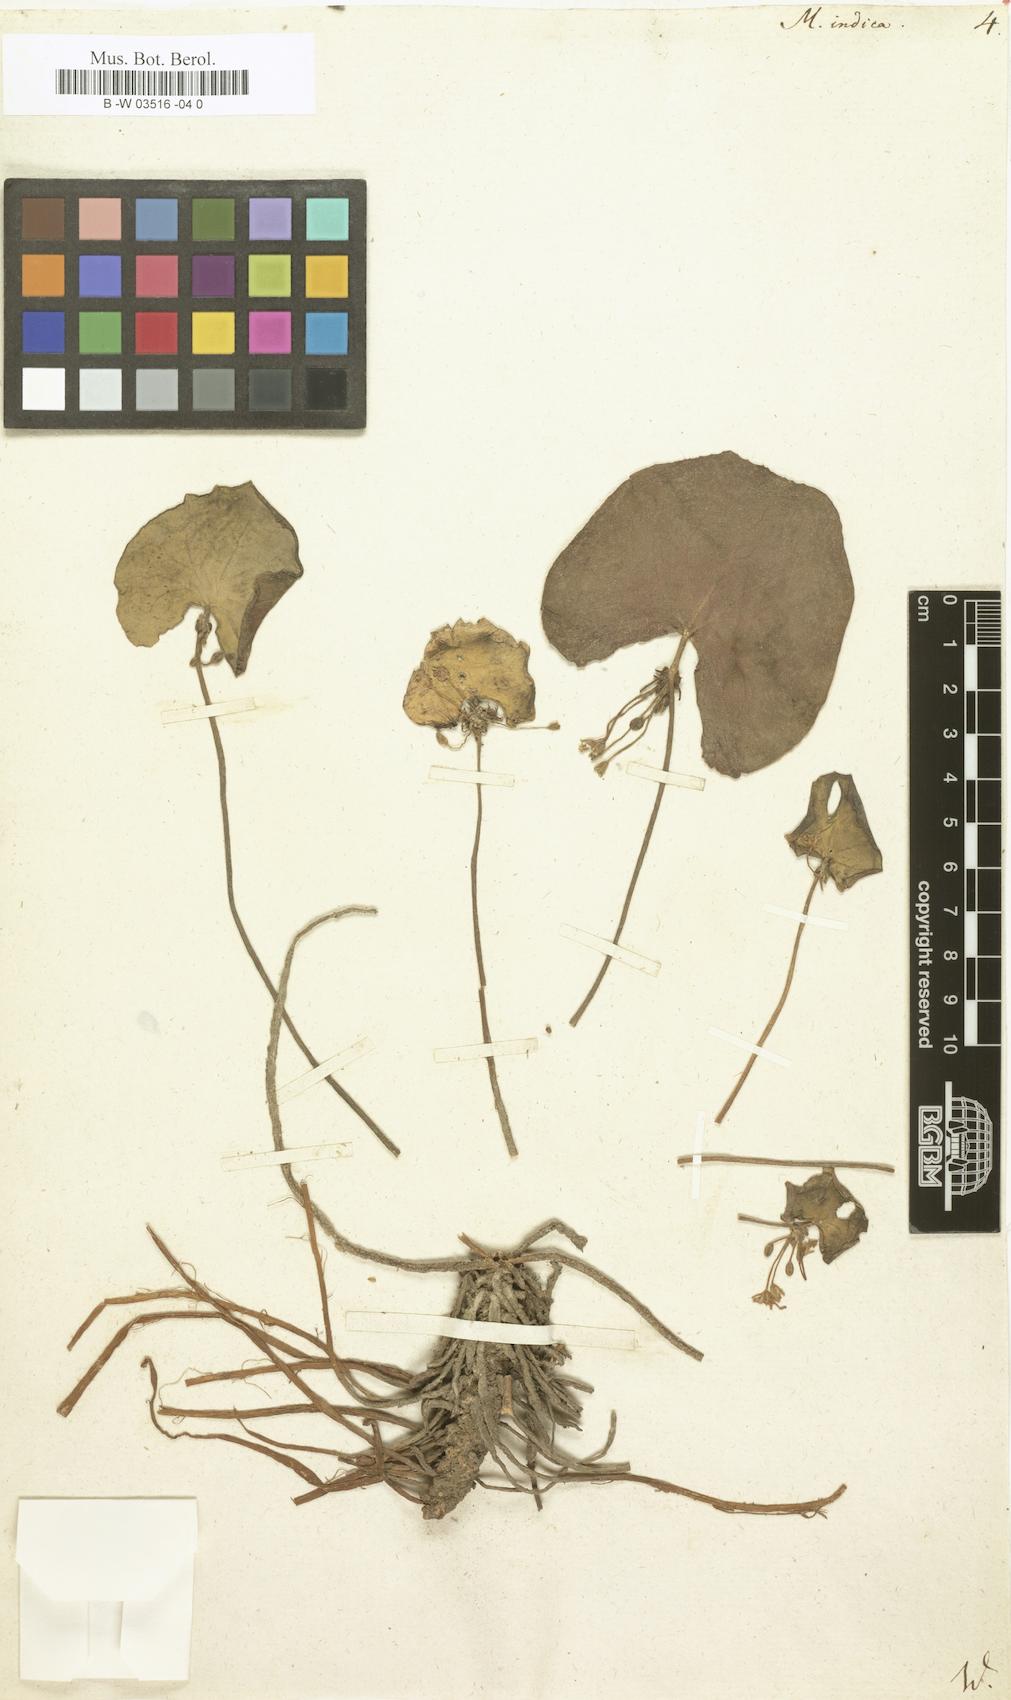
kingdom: Plantae
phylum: Tracheophyta
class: Magnoliopsida
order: Asterales
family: Menyanthaceae
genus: Nymphoides
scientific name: Nymphoides indica
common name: Water-snowflake
